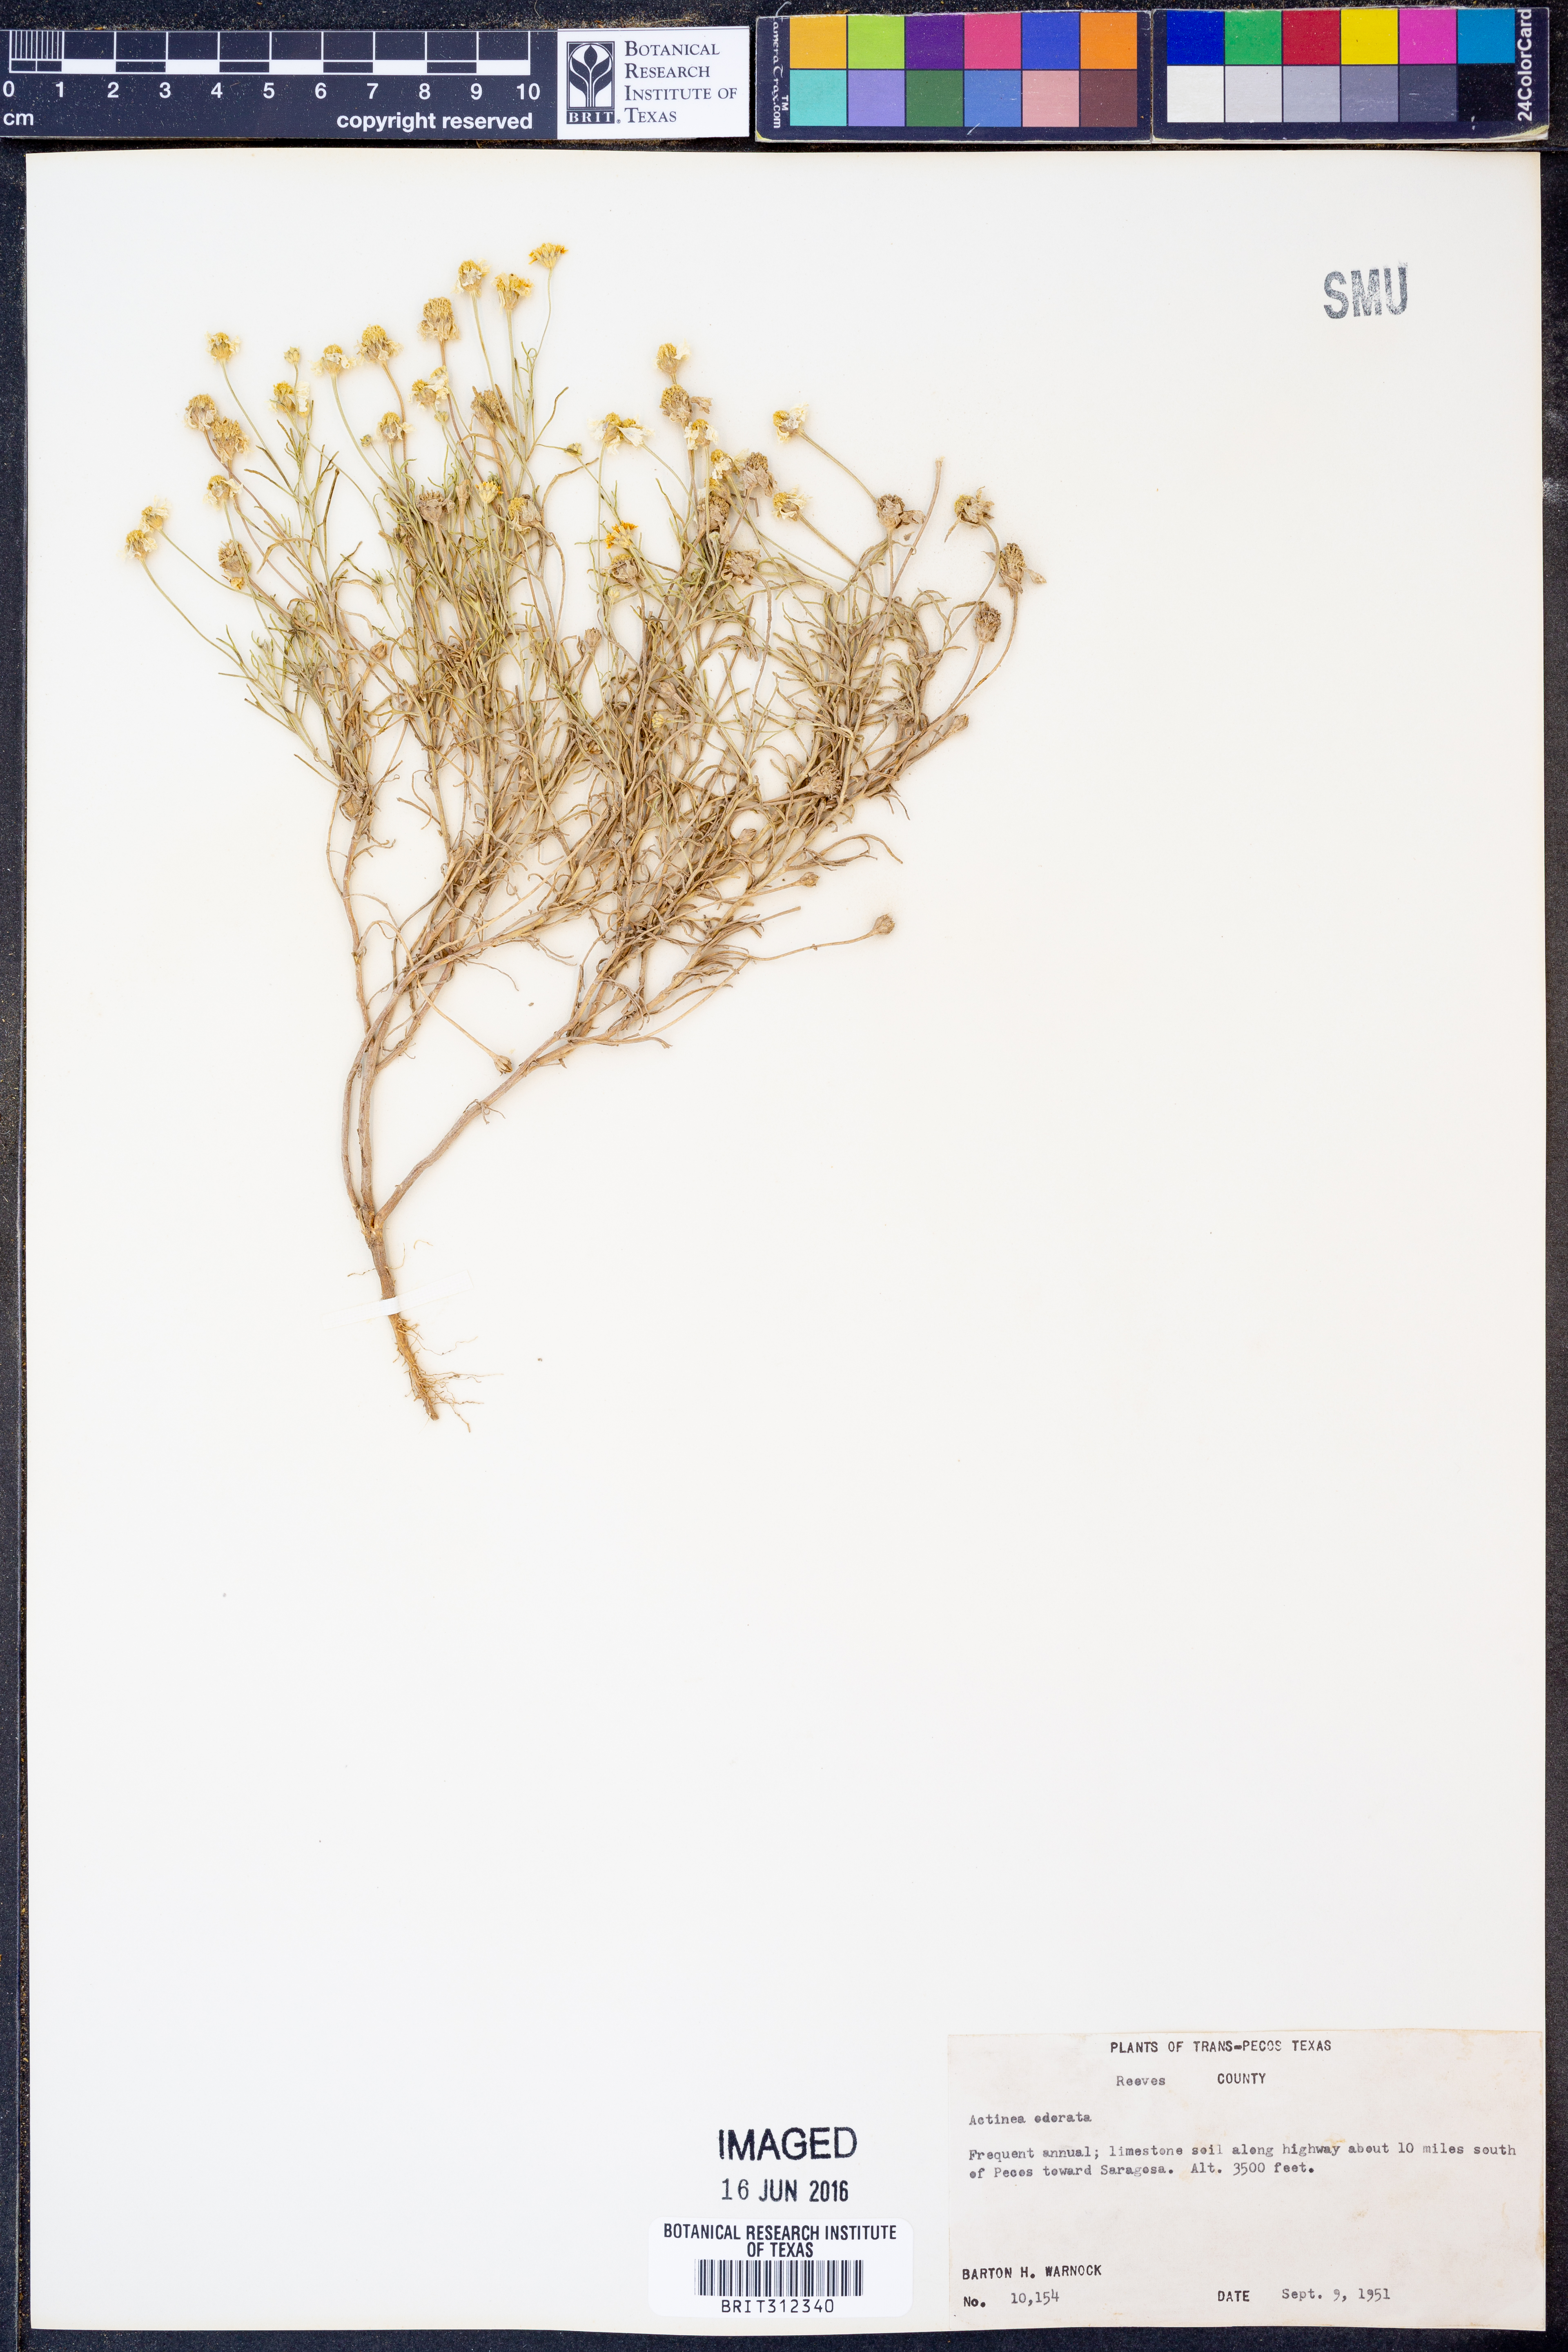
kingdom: Plantae
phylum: Tracheophyta
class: Magnoliopsida
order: Asterales
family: Asteraceae
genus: Hymenoxys
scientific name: Hymenoxys odorata
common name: Bitter rubberweed
